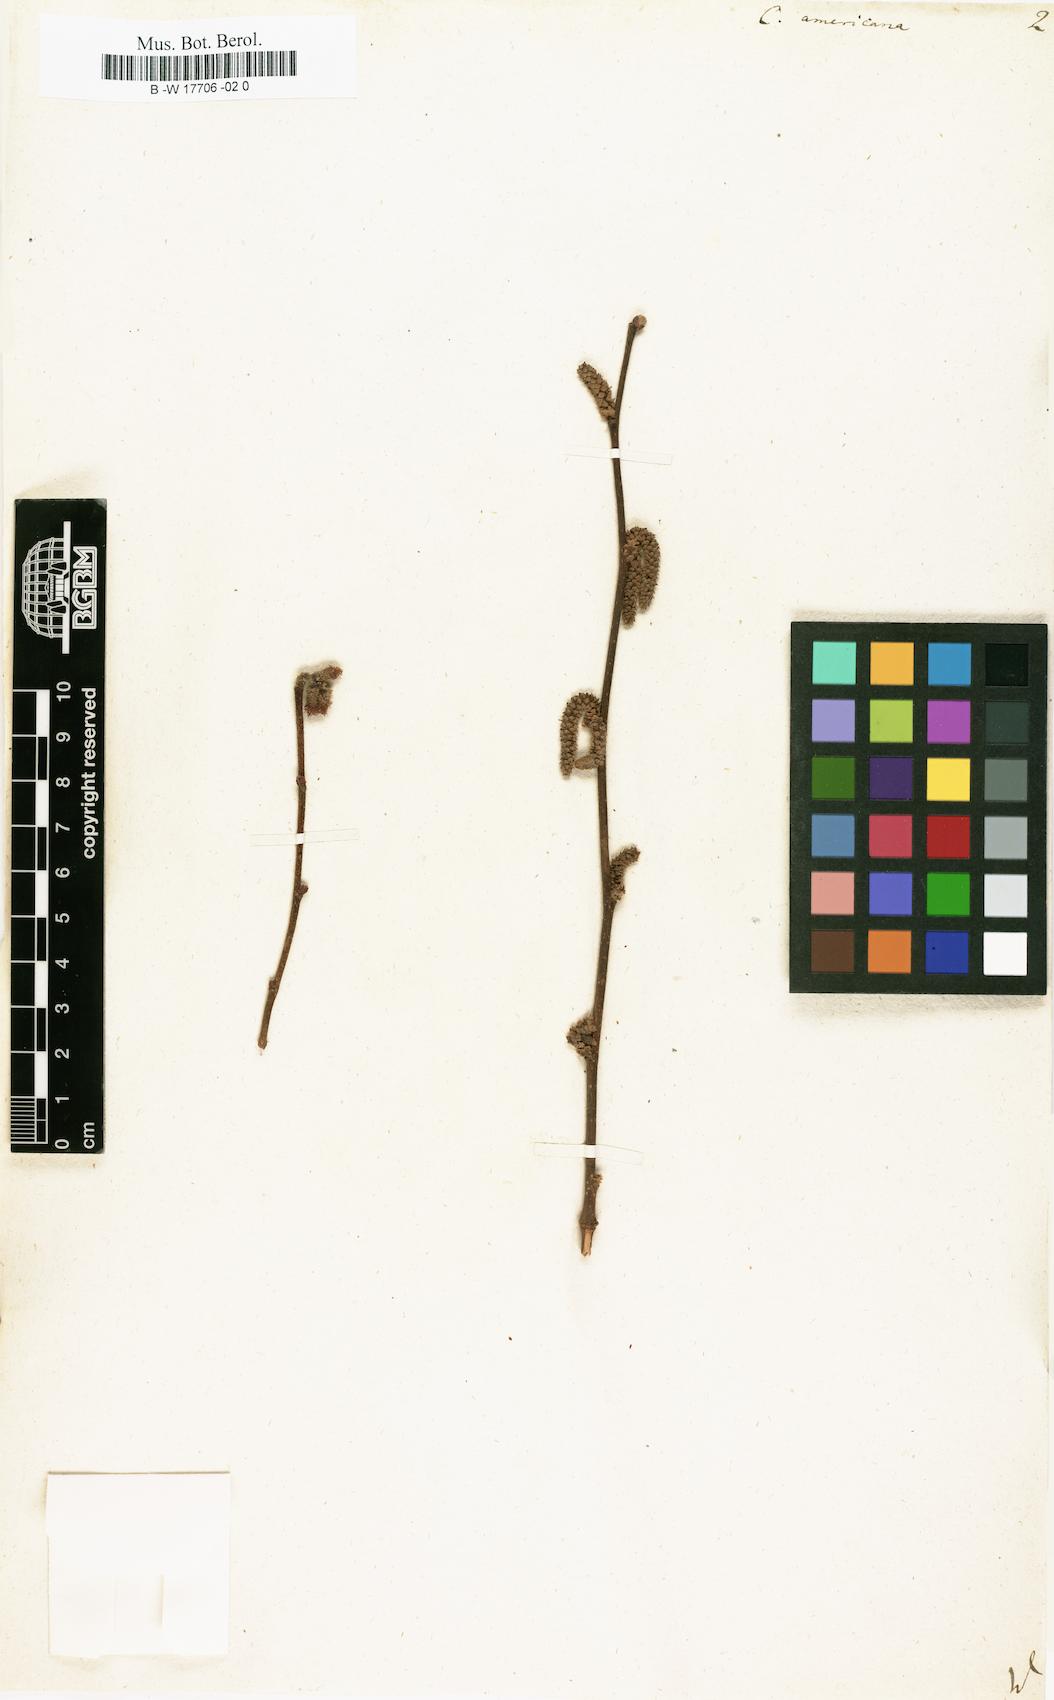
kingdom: Plantae
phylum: Tracheophyta
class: Magnoliopsida
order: Fagales
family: Betulaceae
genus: Corylus
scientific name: Corylus americana
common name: American hazel
